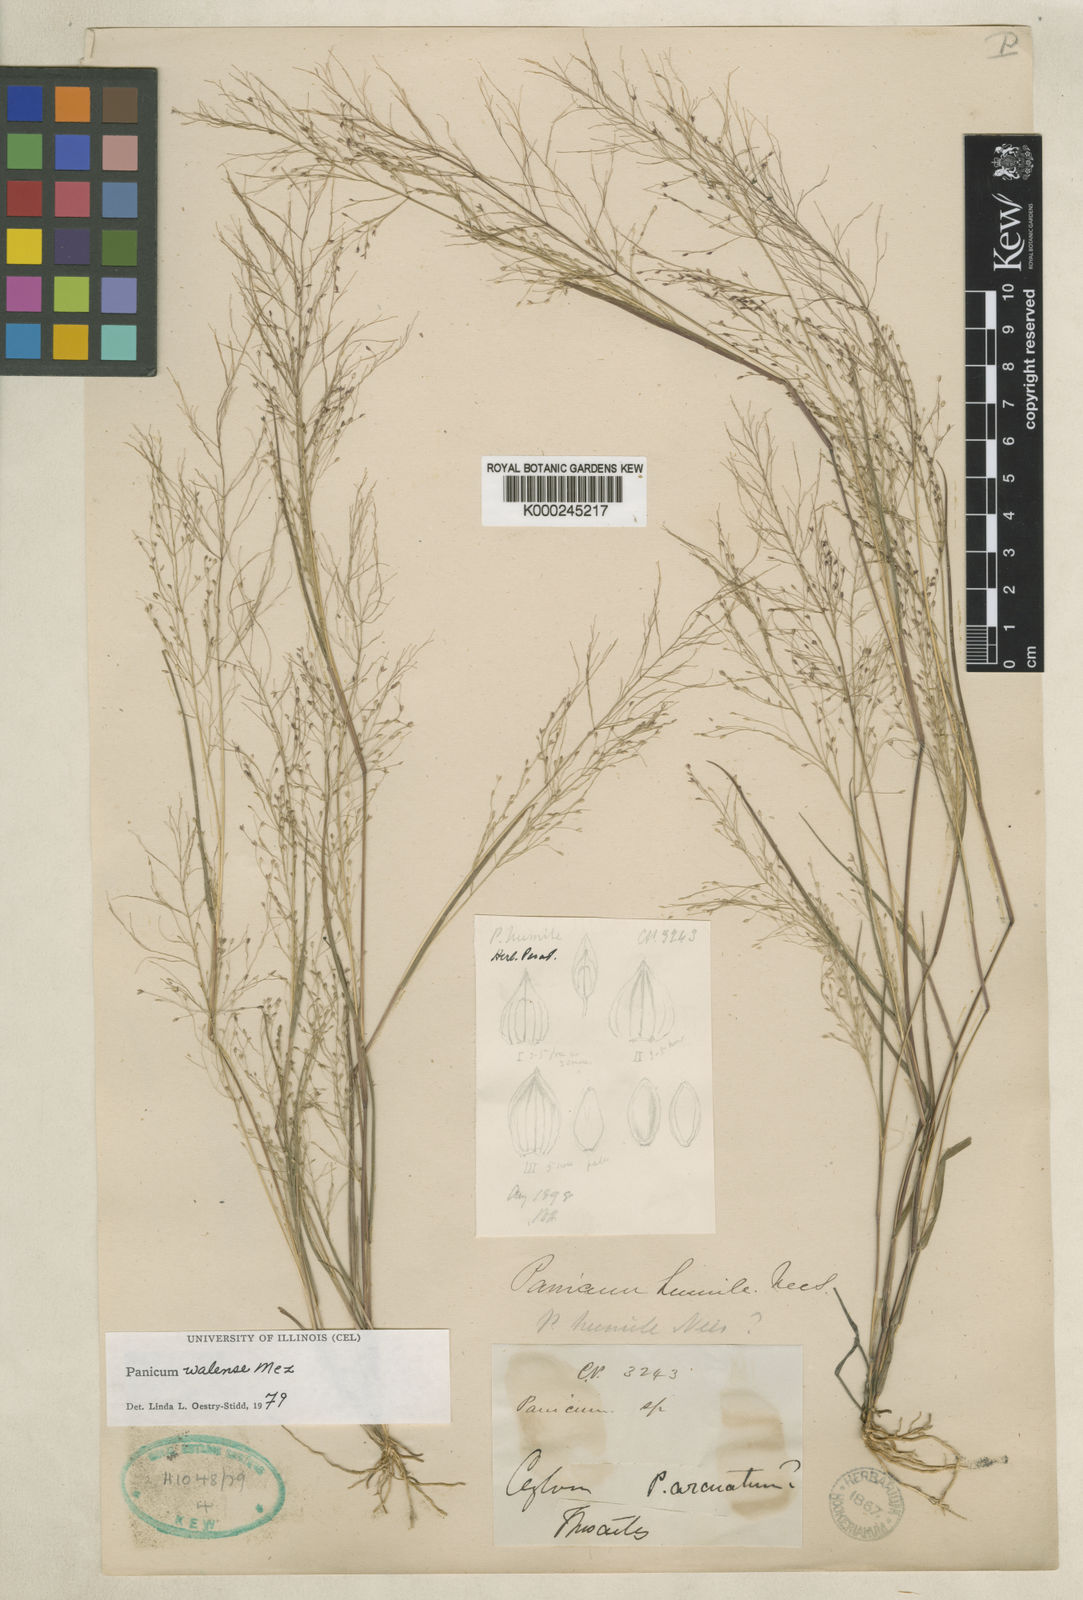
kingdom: Plantae
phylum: Tracheophyta
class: Liliopsida
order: Poales
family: Poaceae
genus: Panicum
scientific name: Panicum humile
